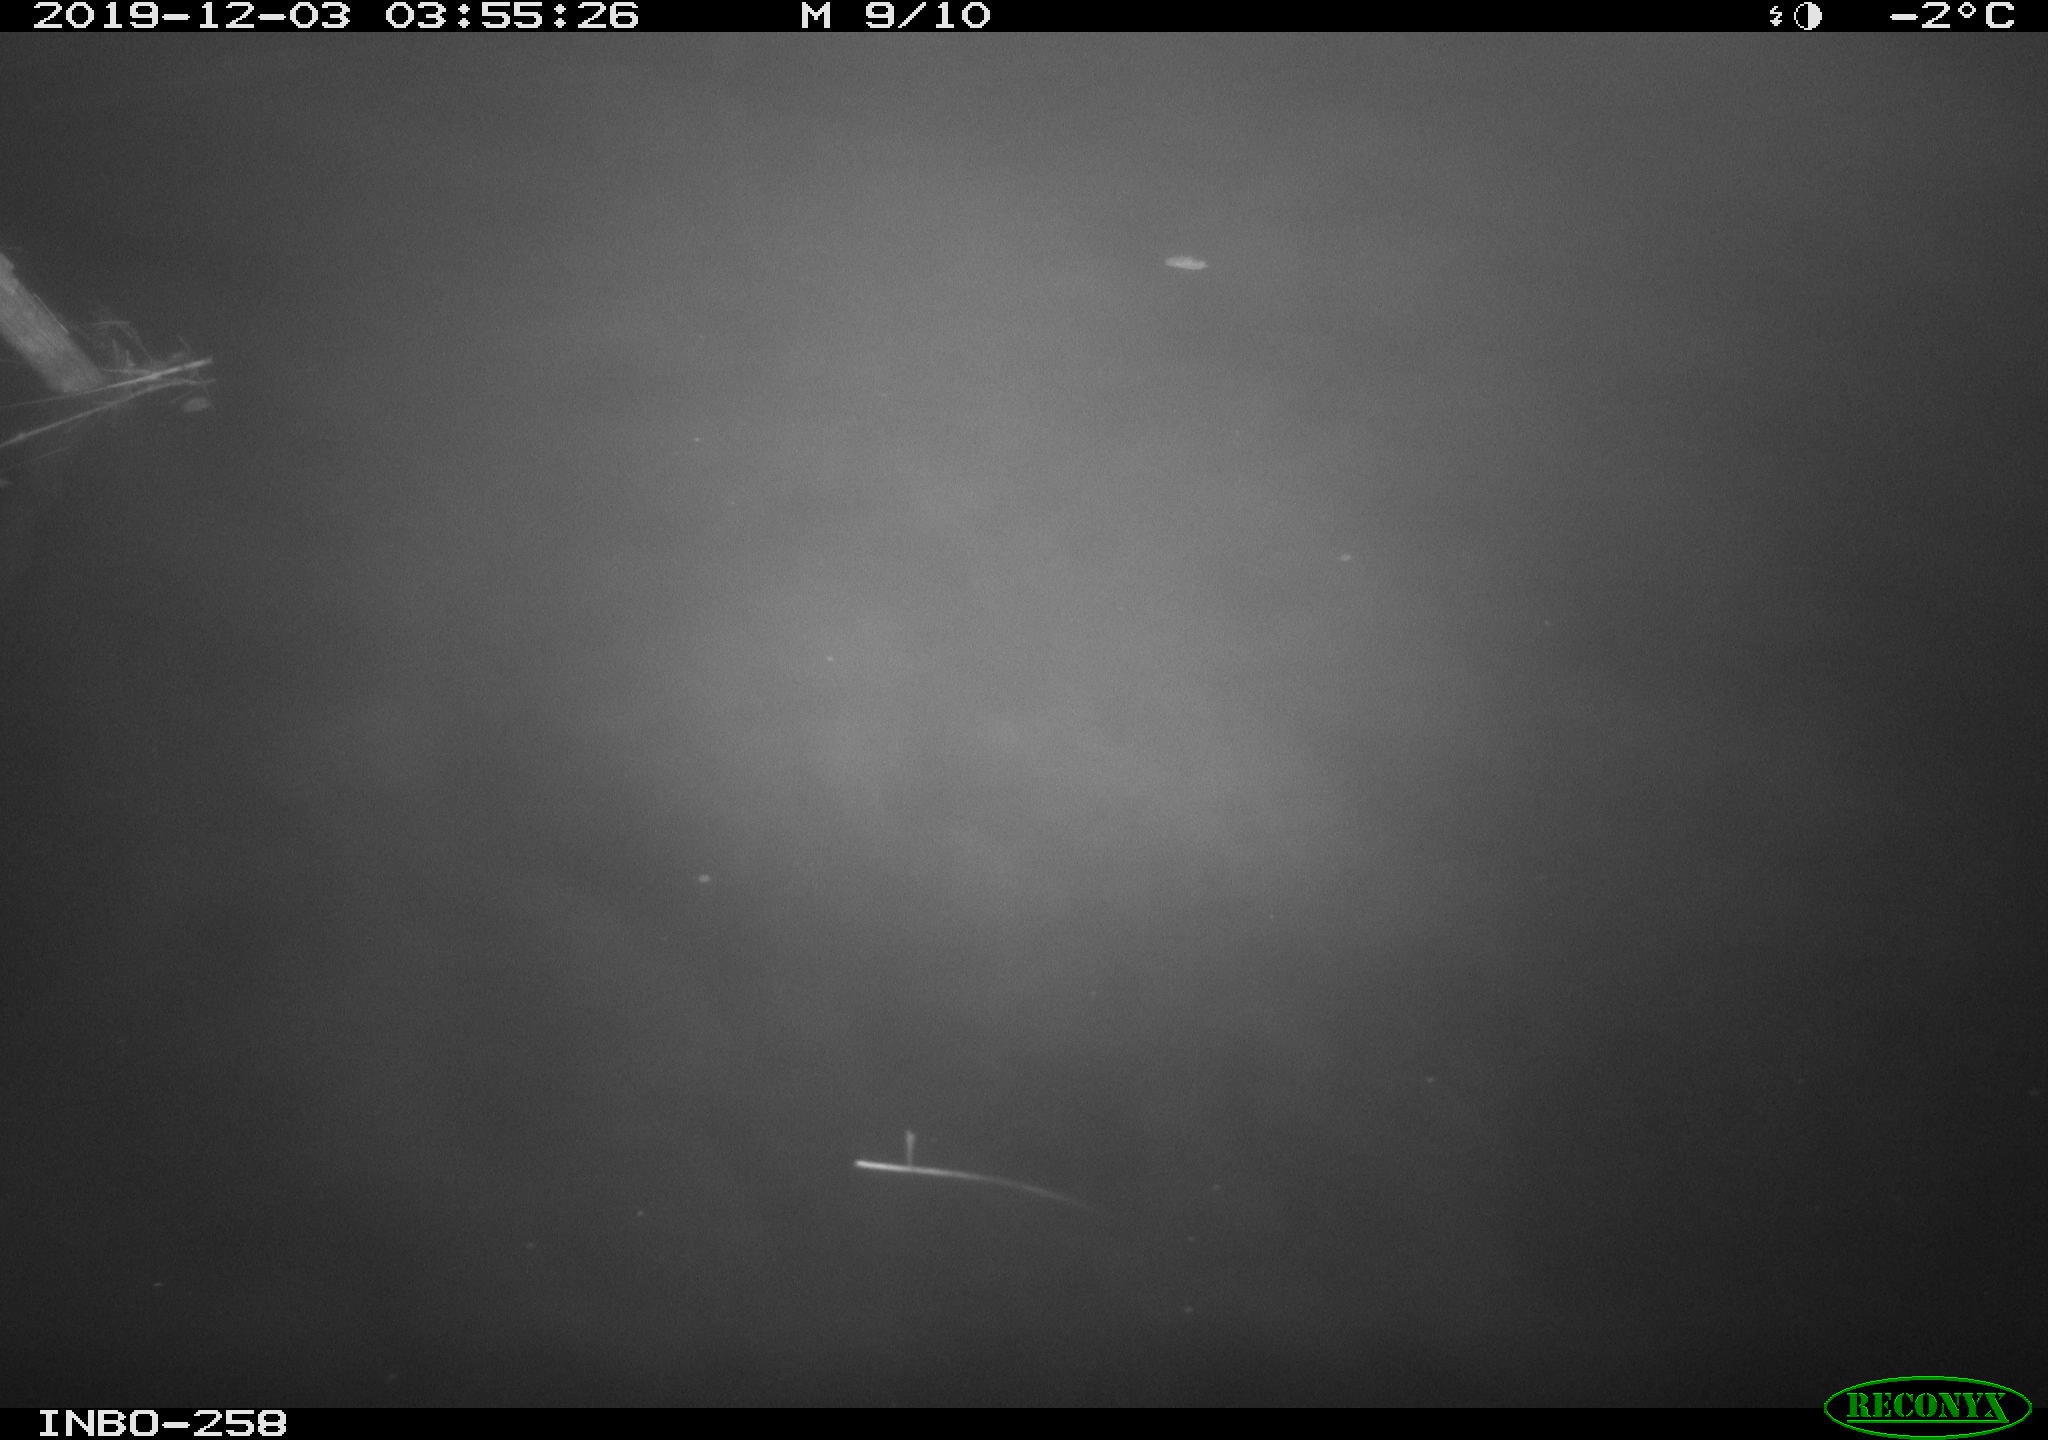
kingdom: Animalia
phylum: Chordata
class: Aves
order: Anseriformes
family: Anatidae
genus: Anas
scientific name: Anas platyrhynchos
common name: Mallard
